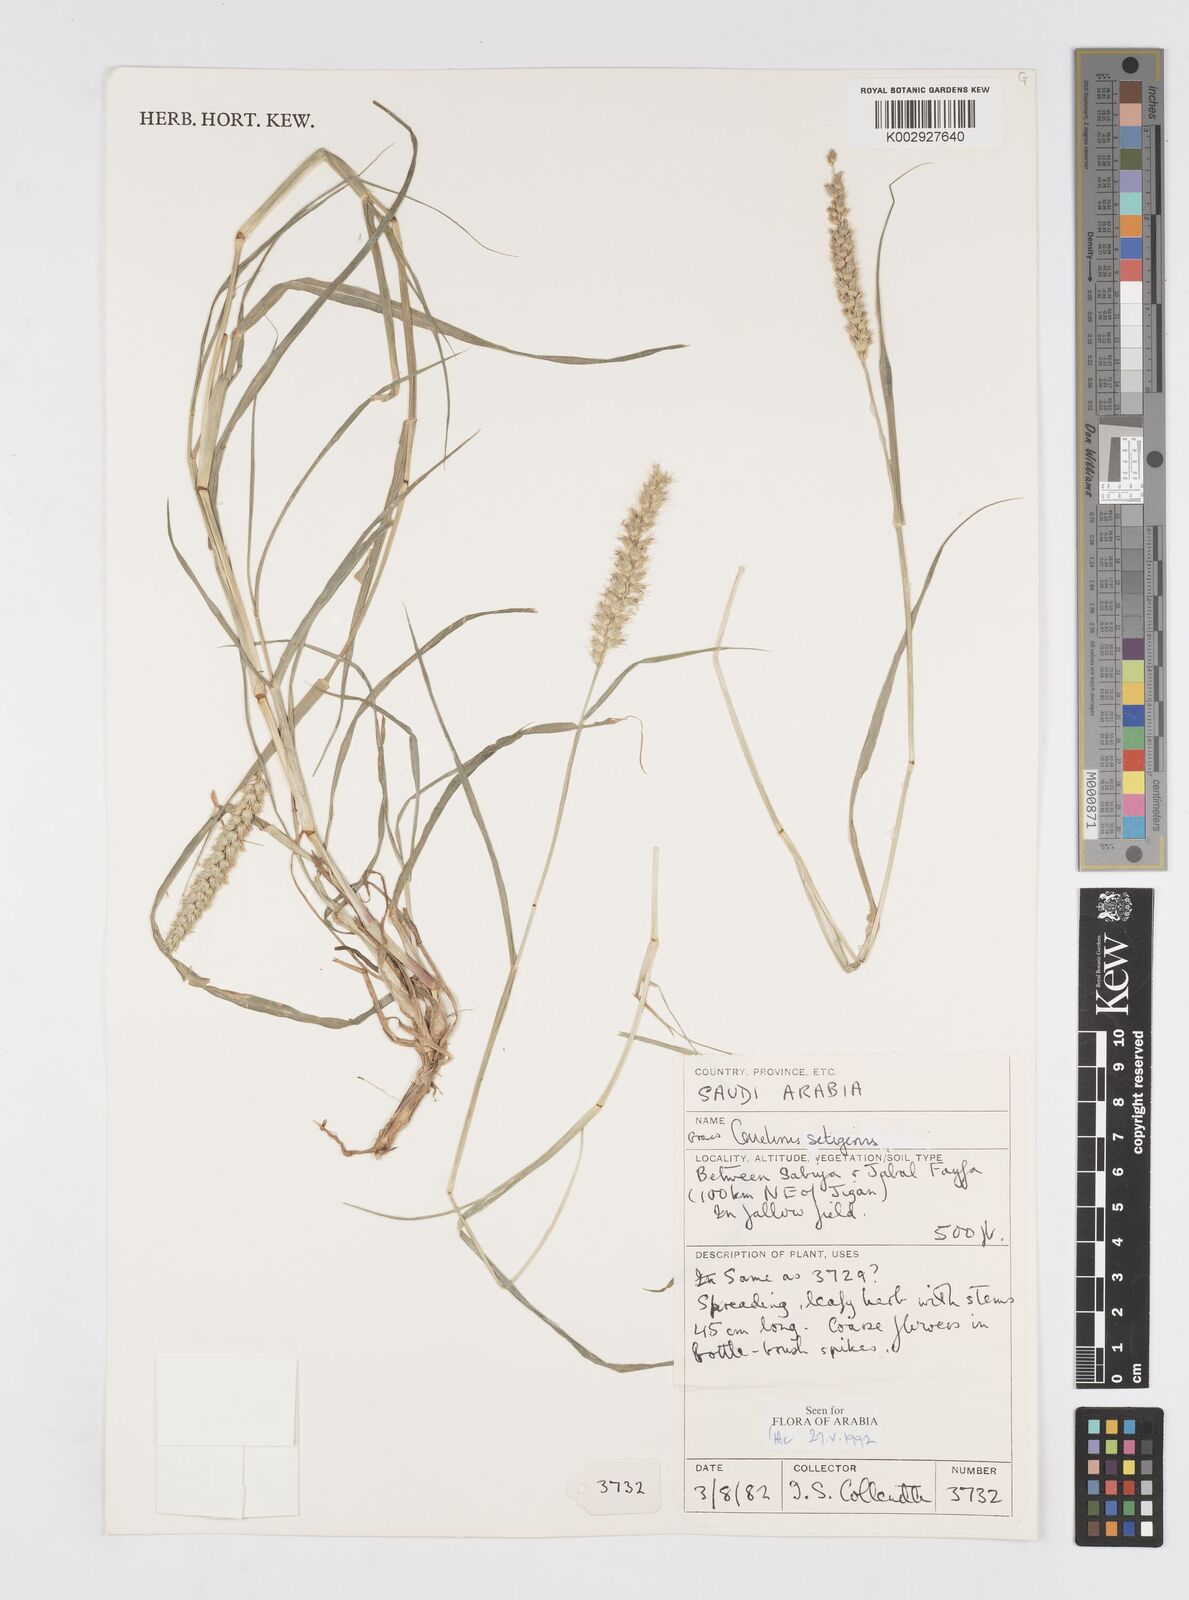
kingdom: Plantae
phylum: Tracheophyta
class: Liliopsida
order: Poales
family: Poaceae
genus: Cenchrus
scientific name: Cenchrus setigerus
